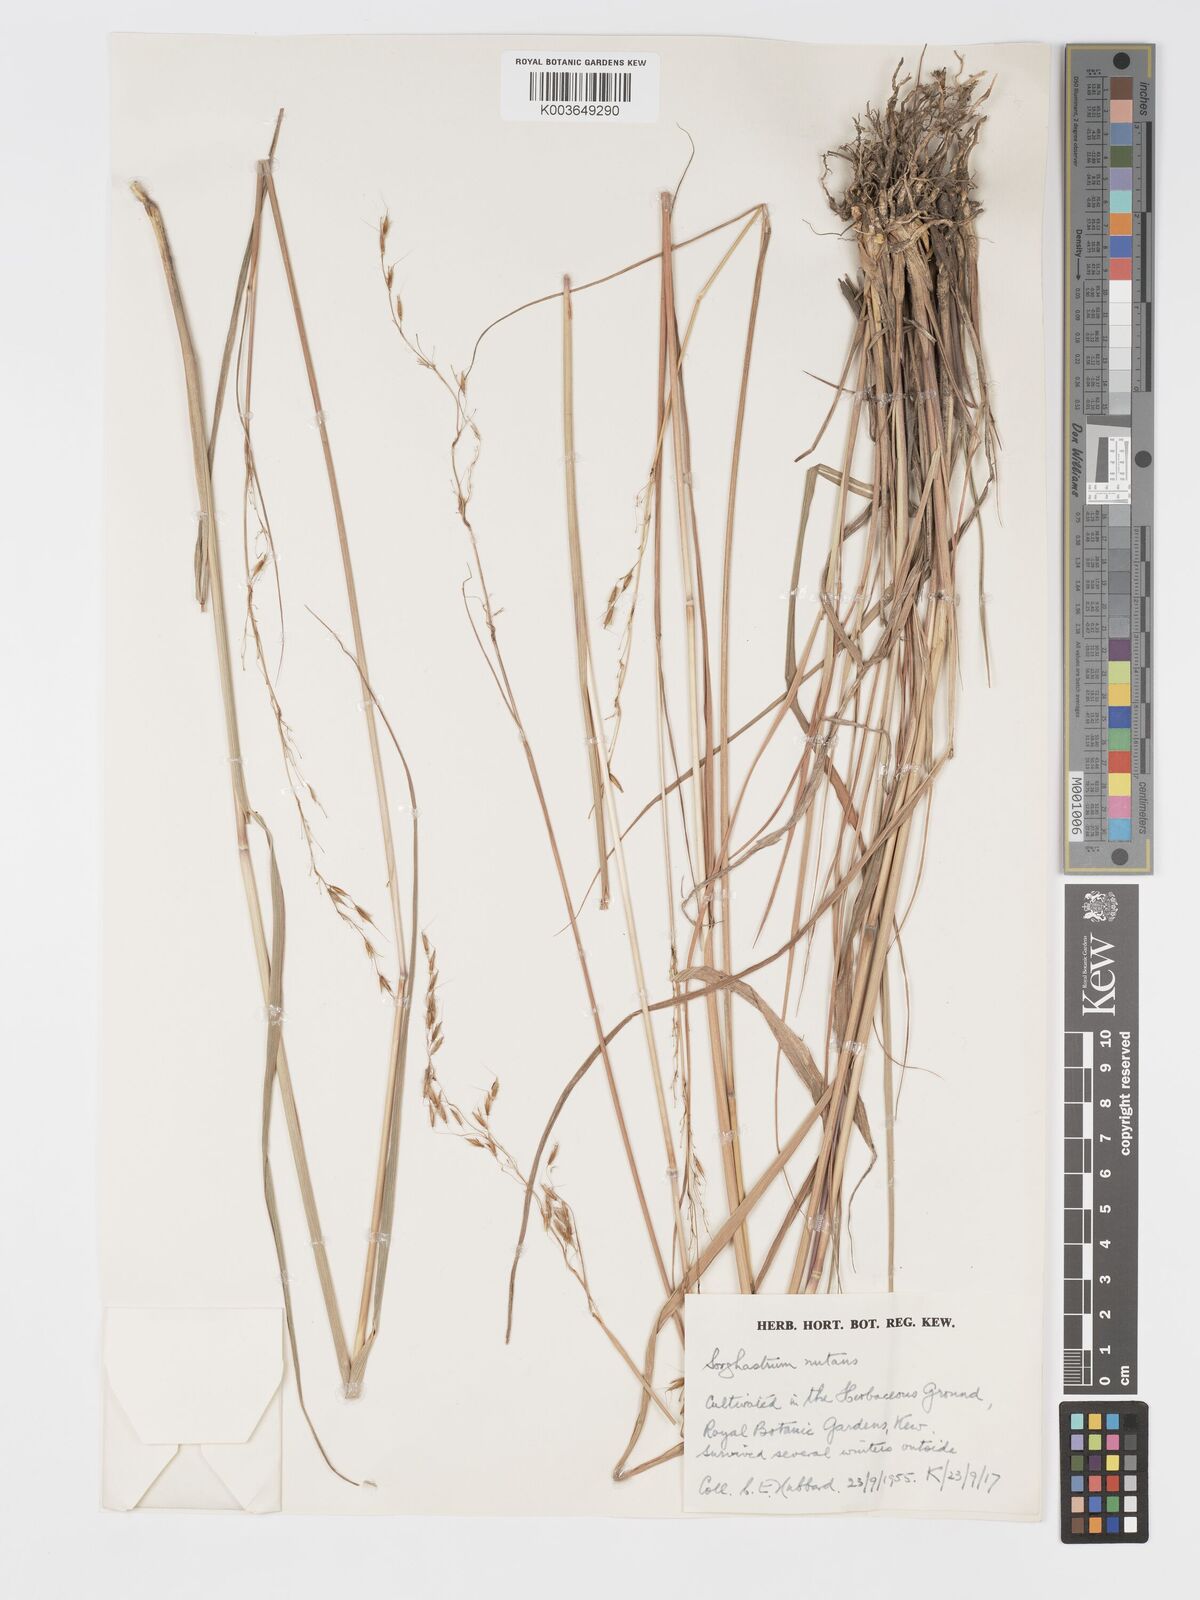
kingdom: Plantae
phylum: Tracheophyta
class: Liliopsida
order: Poales
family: Poaceae
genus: Sorghastrum
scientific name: Sorghastrum nutans
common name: Indian grass
